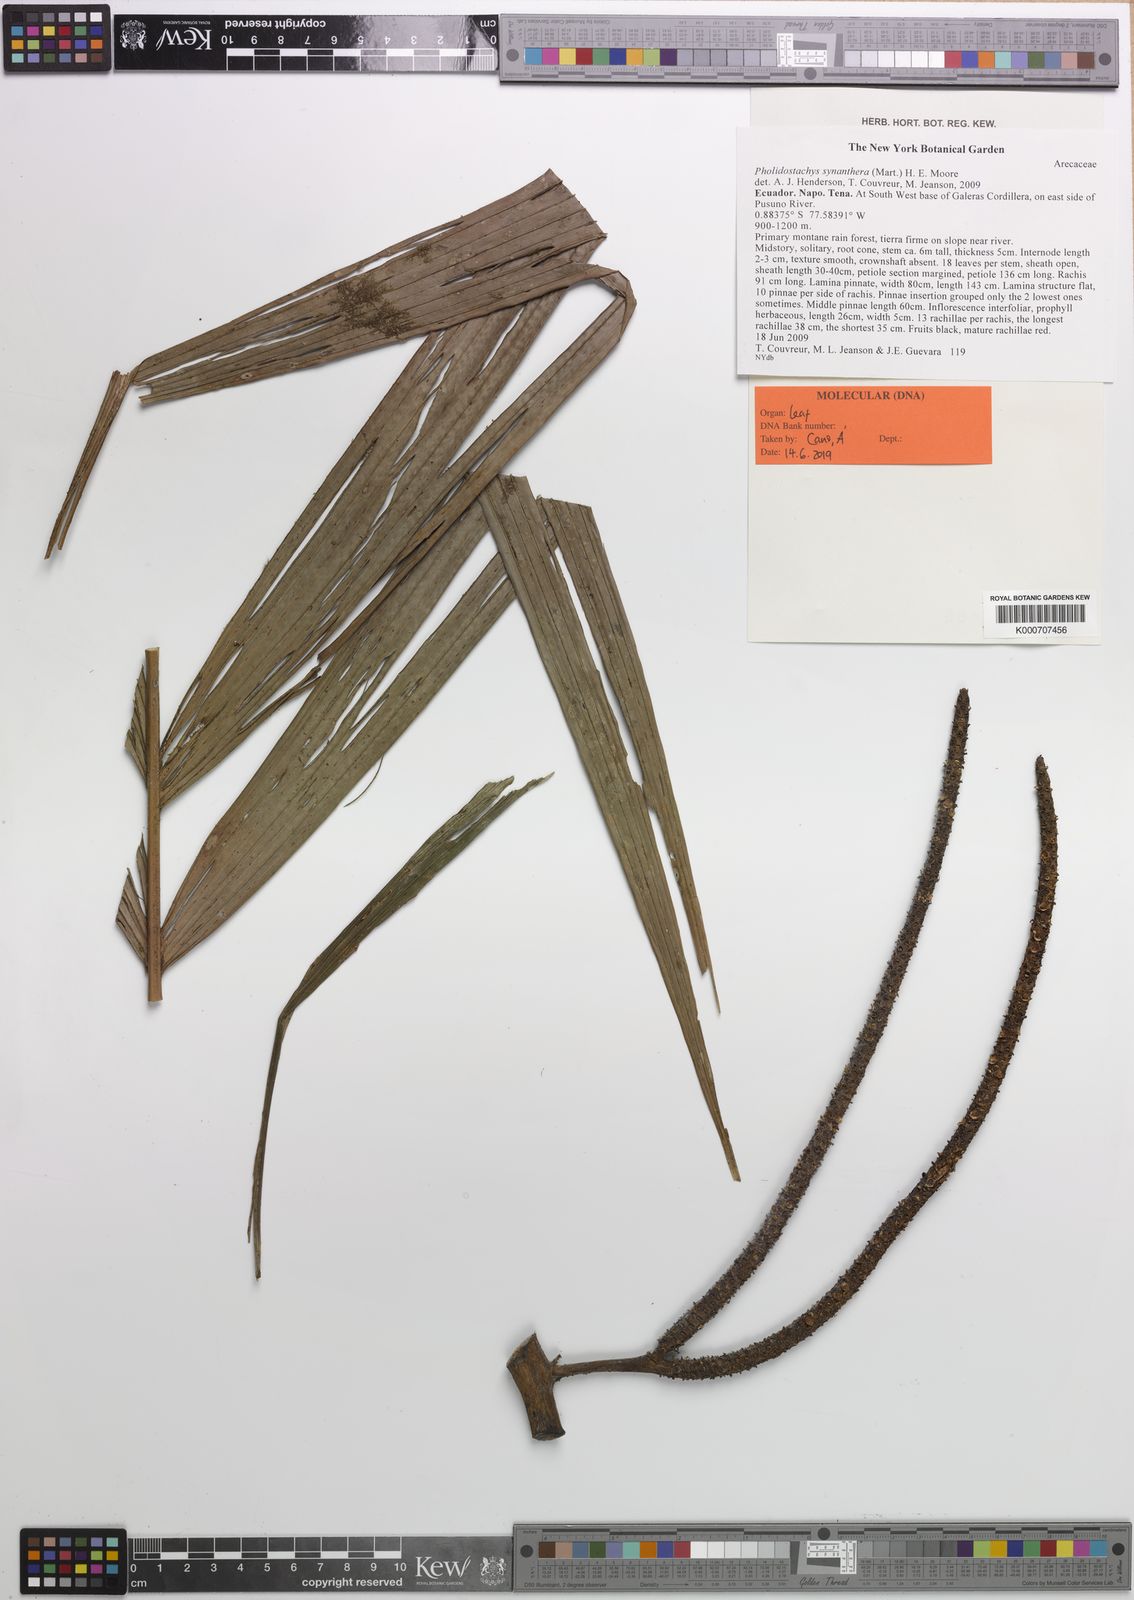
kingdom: Plantae
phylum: Tracheophyta
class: Liliopsida
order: Arecales
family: Arecaceae
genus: Pholidostachys
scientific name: Pholidostachys synanthera
